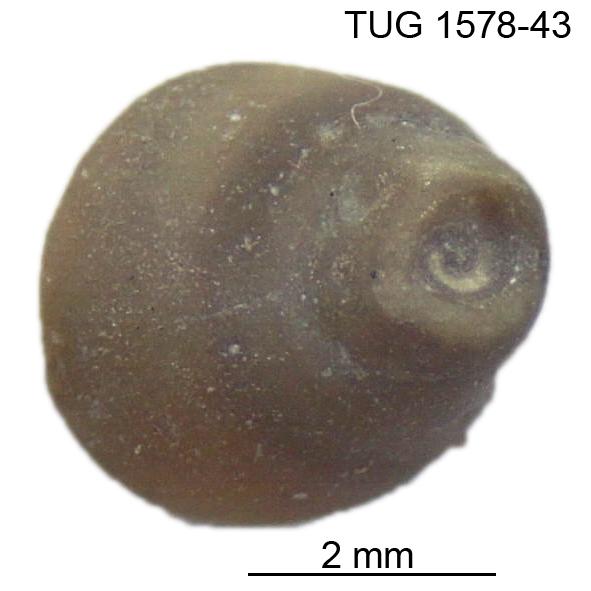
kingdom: Animalia
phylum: Mollusca
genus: Anticalyptraea
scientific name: Anticalyptraea westergaardi
